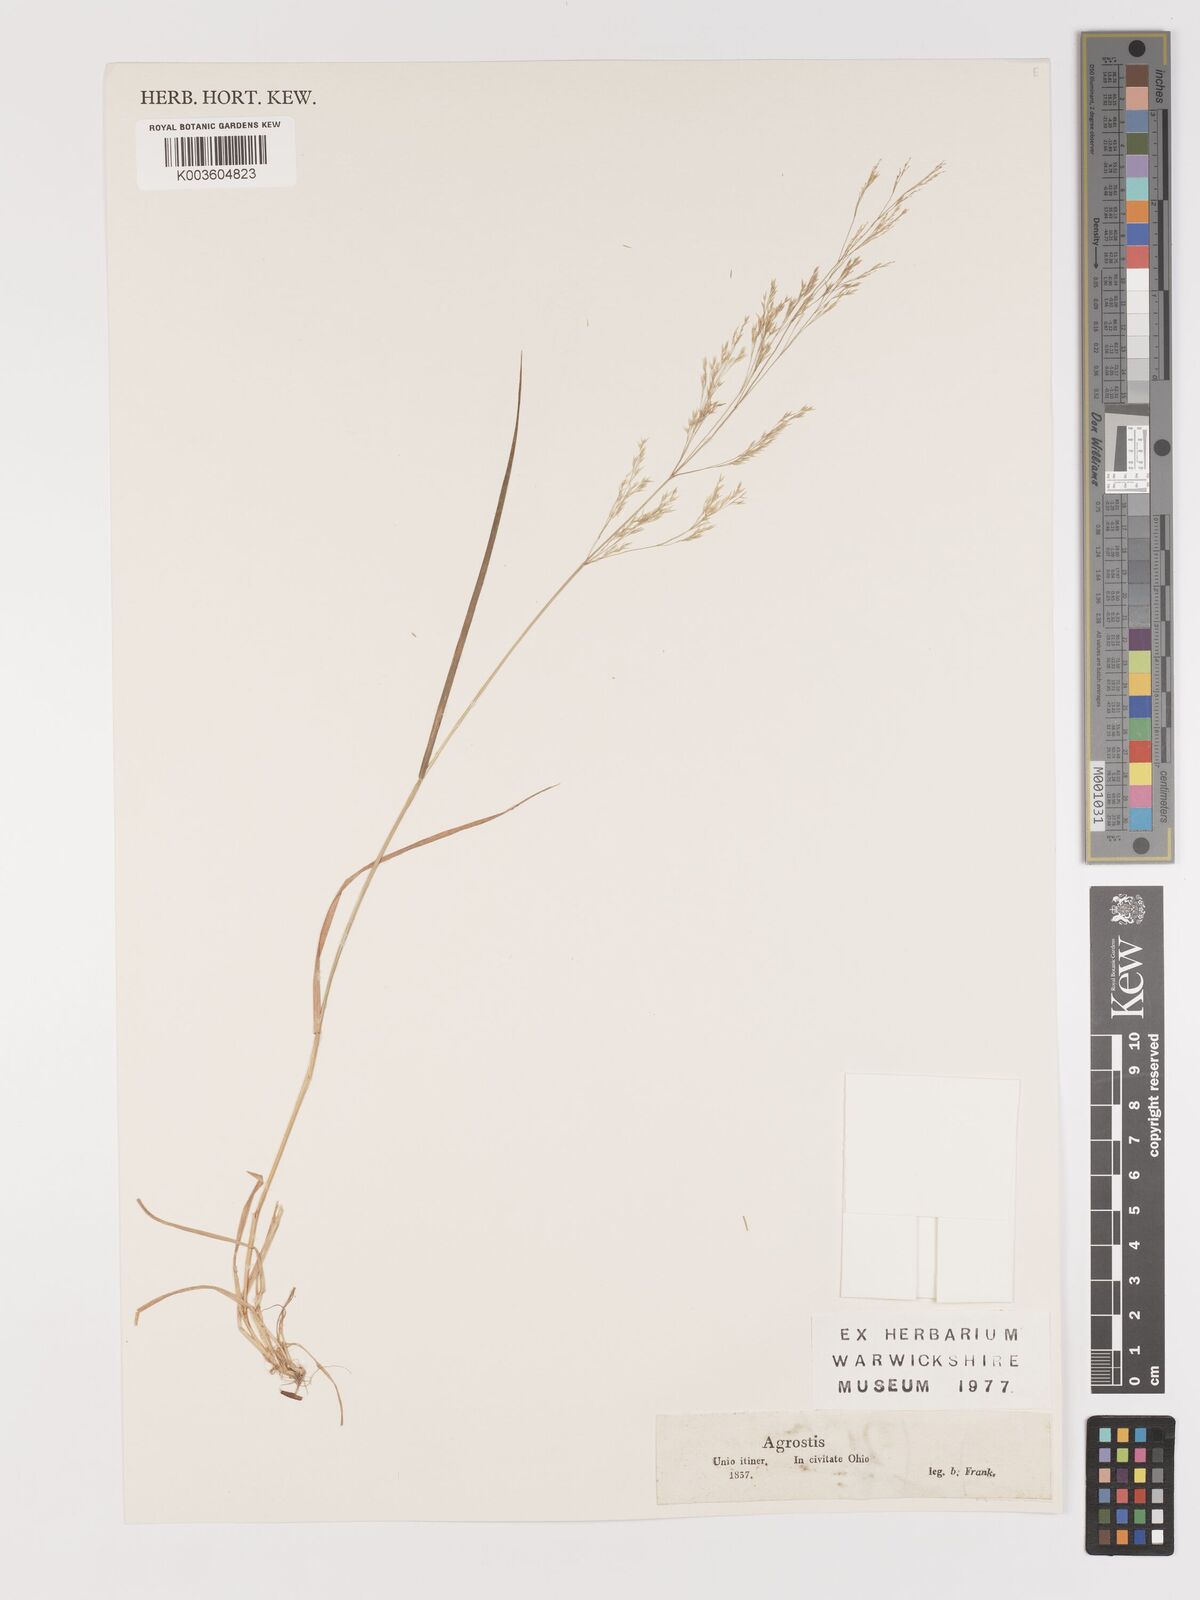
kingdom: Plantae
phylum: Tracheophyta
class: Liliopsida
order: Poales
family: Poaceae
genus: Agrostis
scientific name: Agrostis
